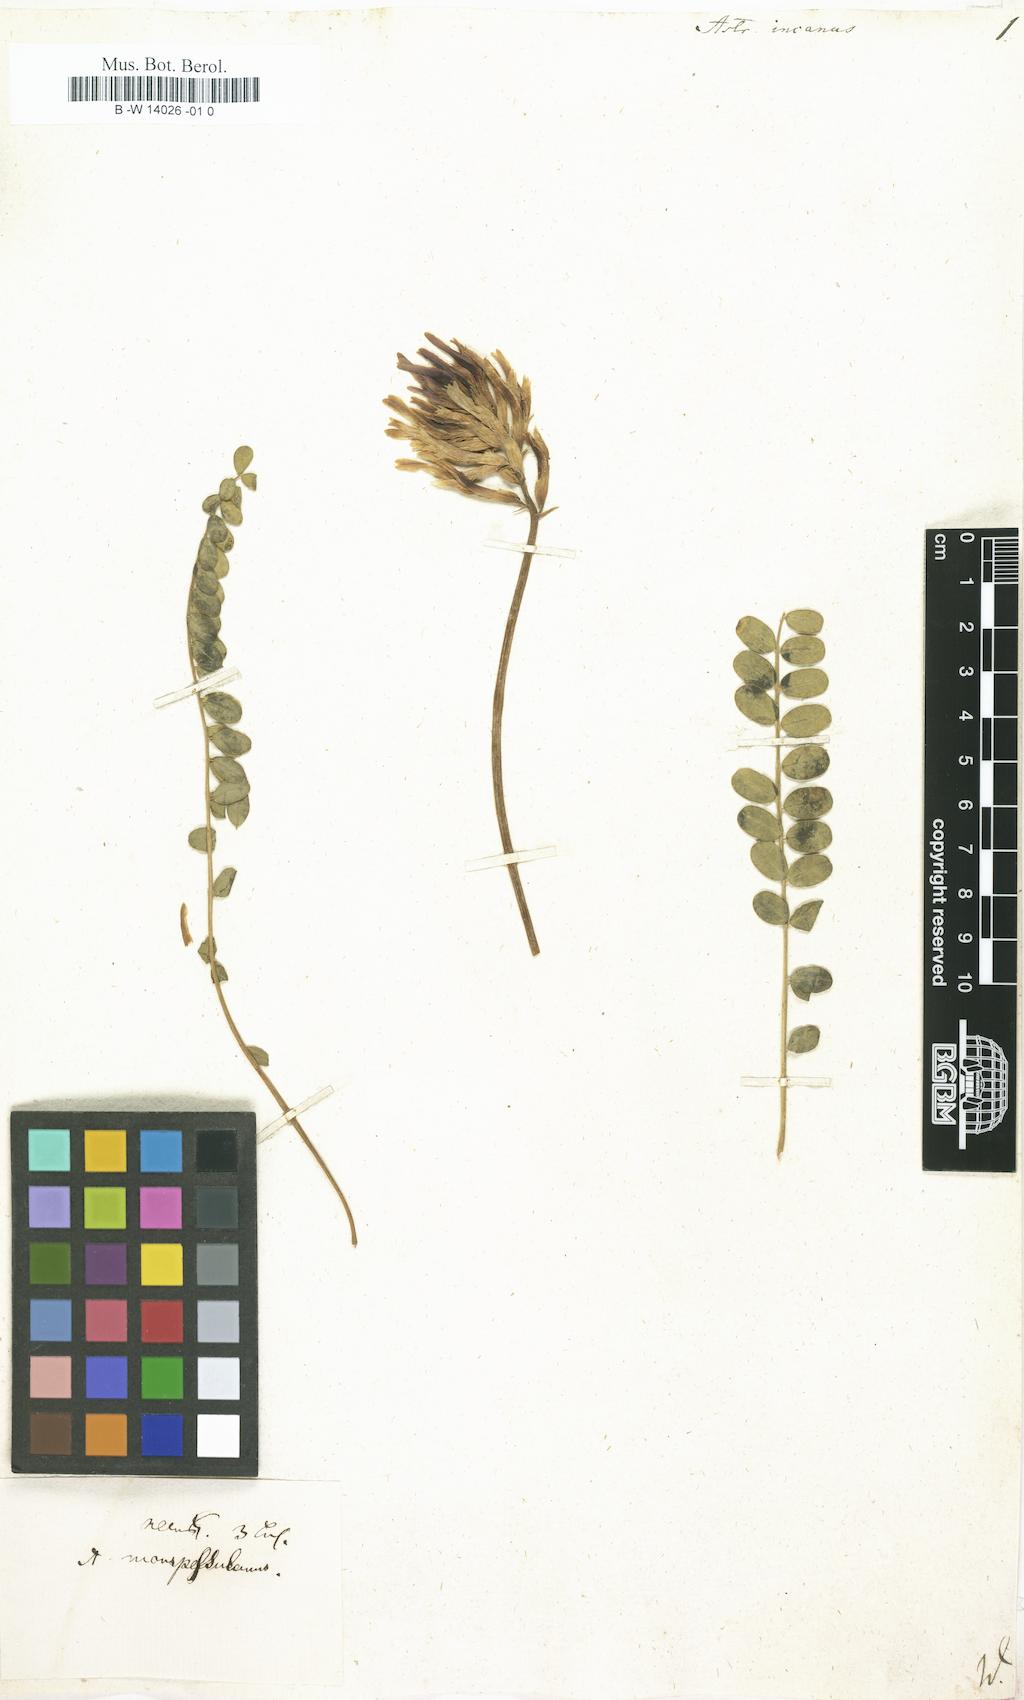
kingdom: Plantae
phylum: Tracheophyta
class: Magnoliopsida
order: Fabales
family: Fabaceae
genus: Astragalus
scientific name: Astragalus incanus
